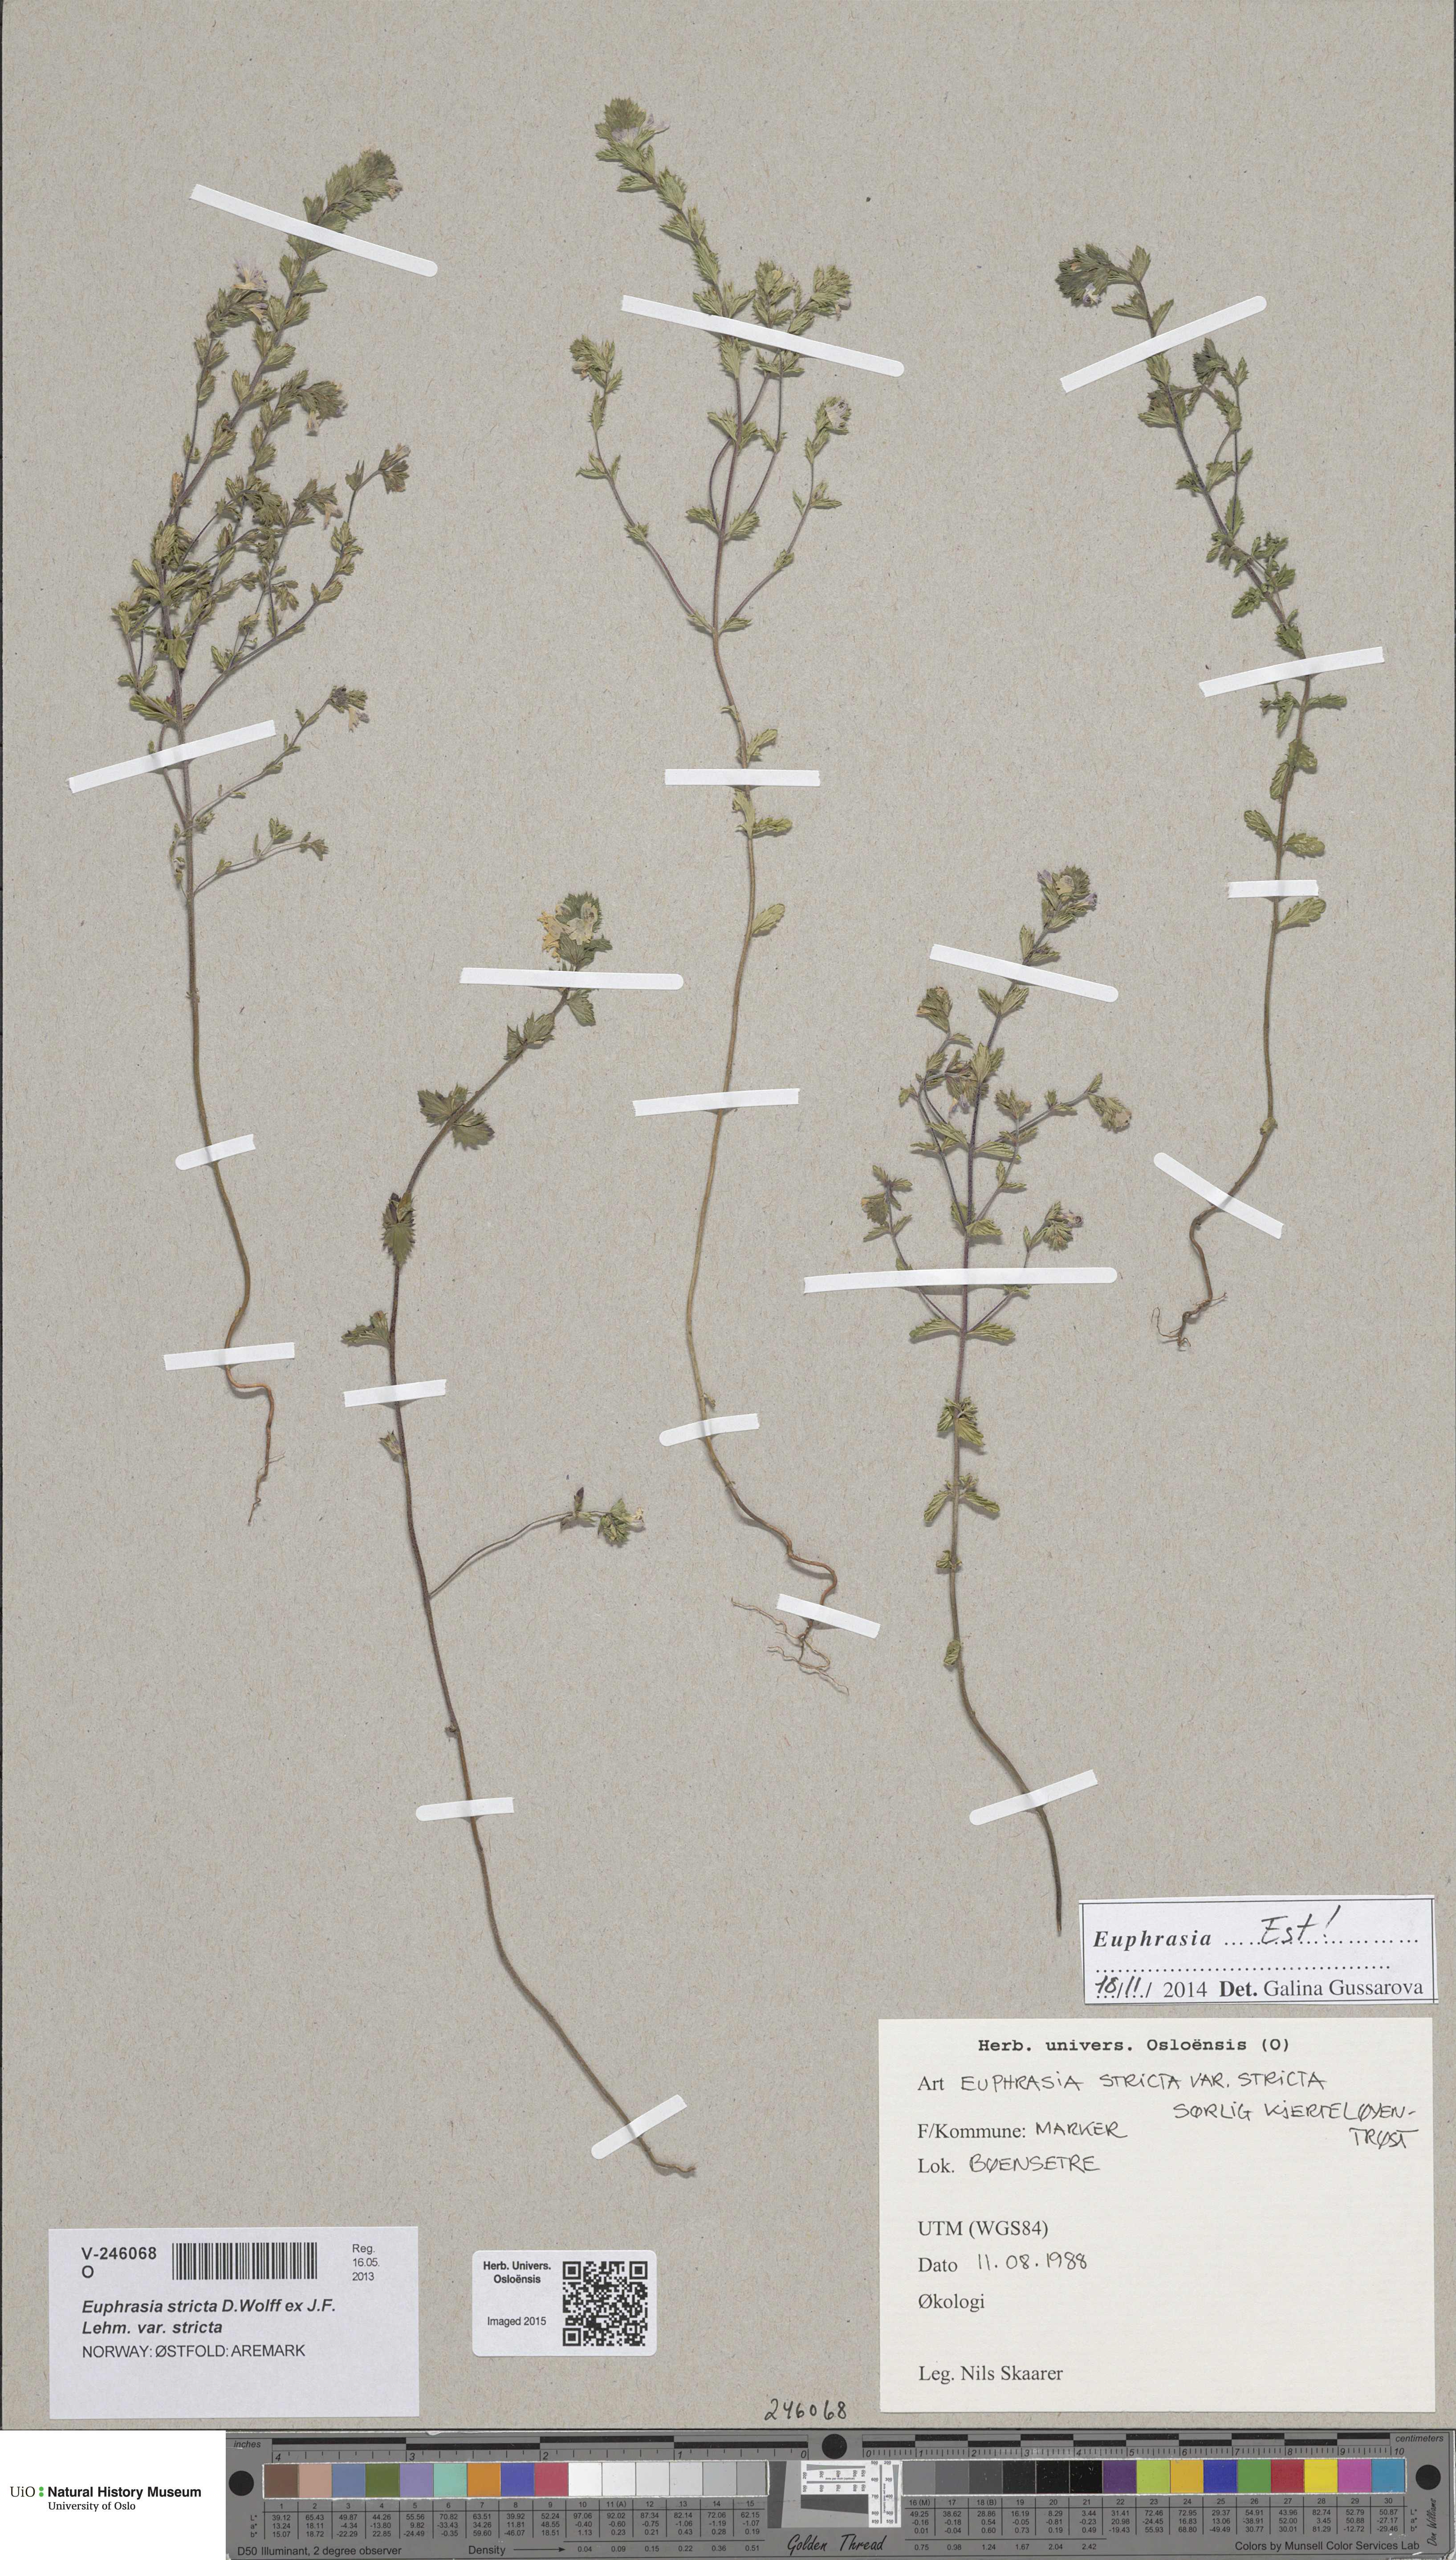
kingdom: Plantae
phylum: Tracheophyta
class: Magnoliopsida
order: Lamiales
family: Orobanchaceae
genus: Euphrasia
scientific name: Euphrasia stricta
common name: Drug eyebright
